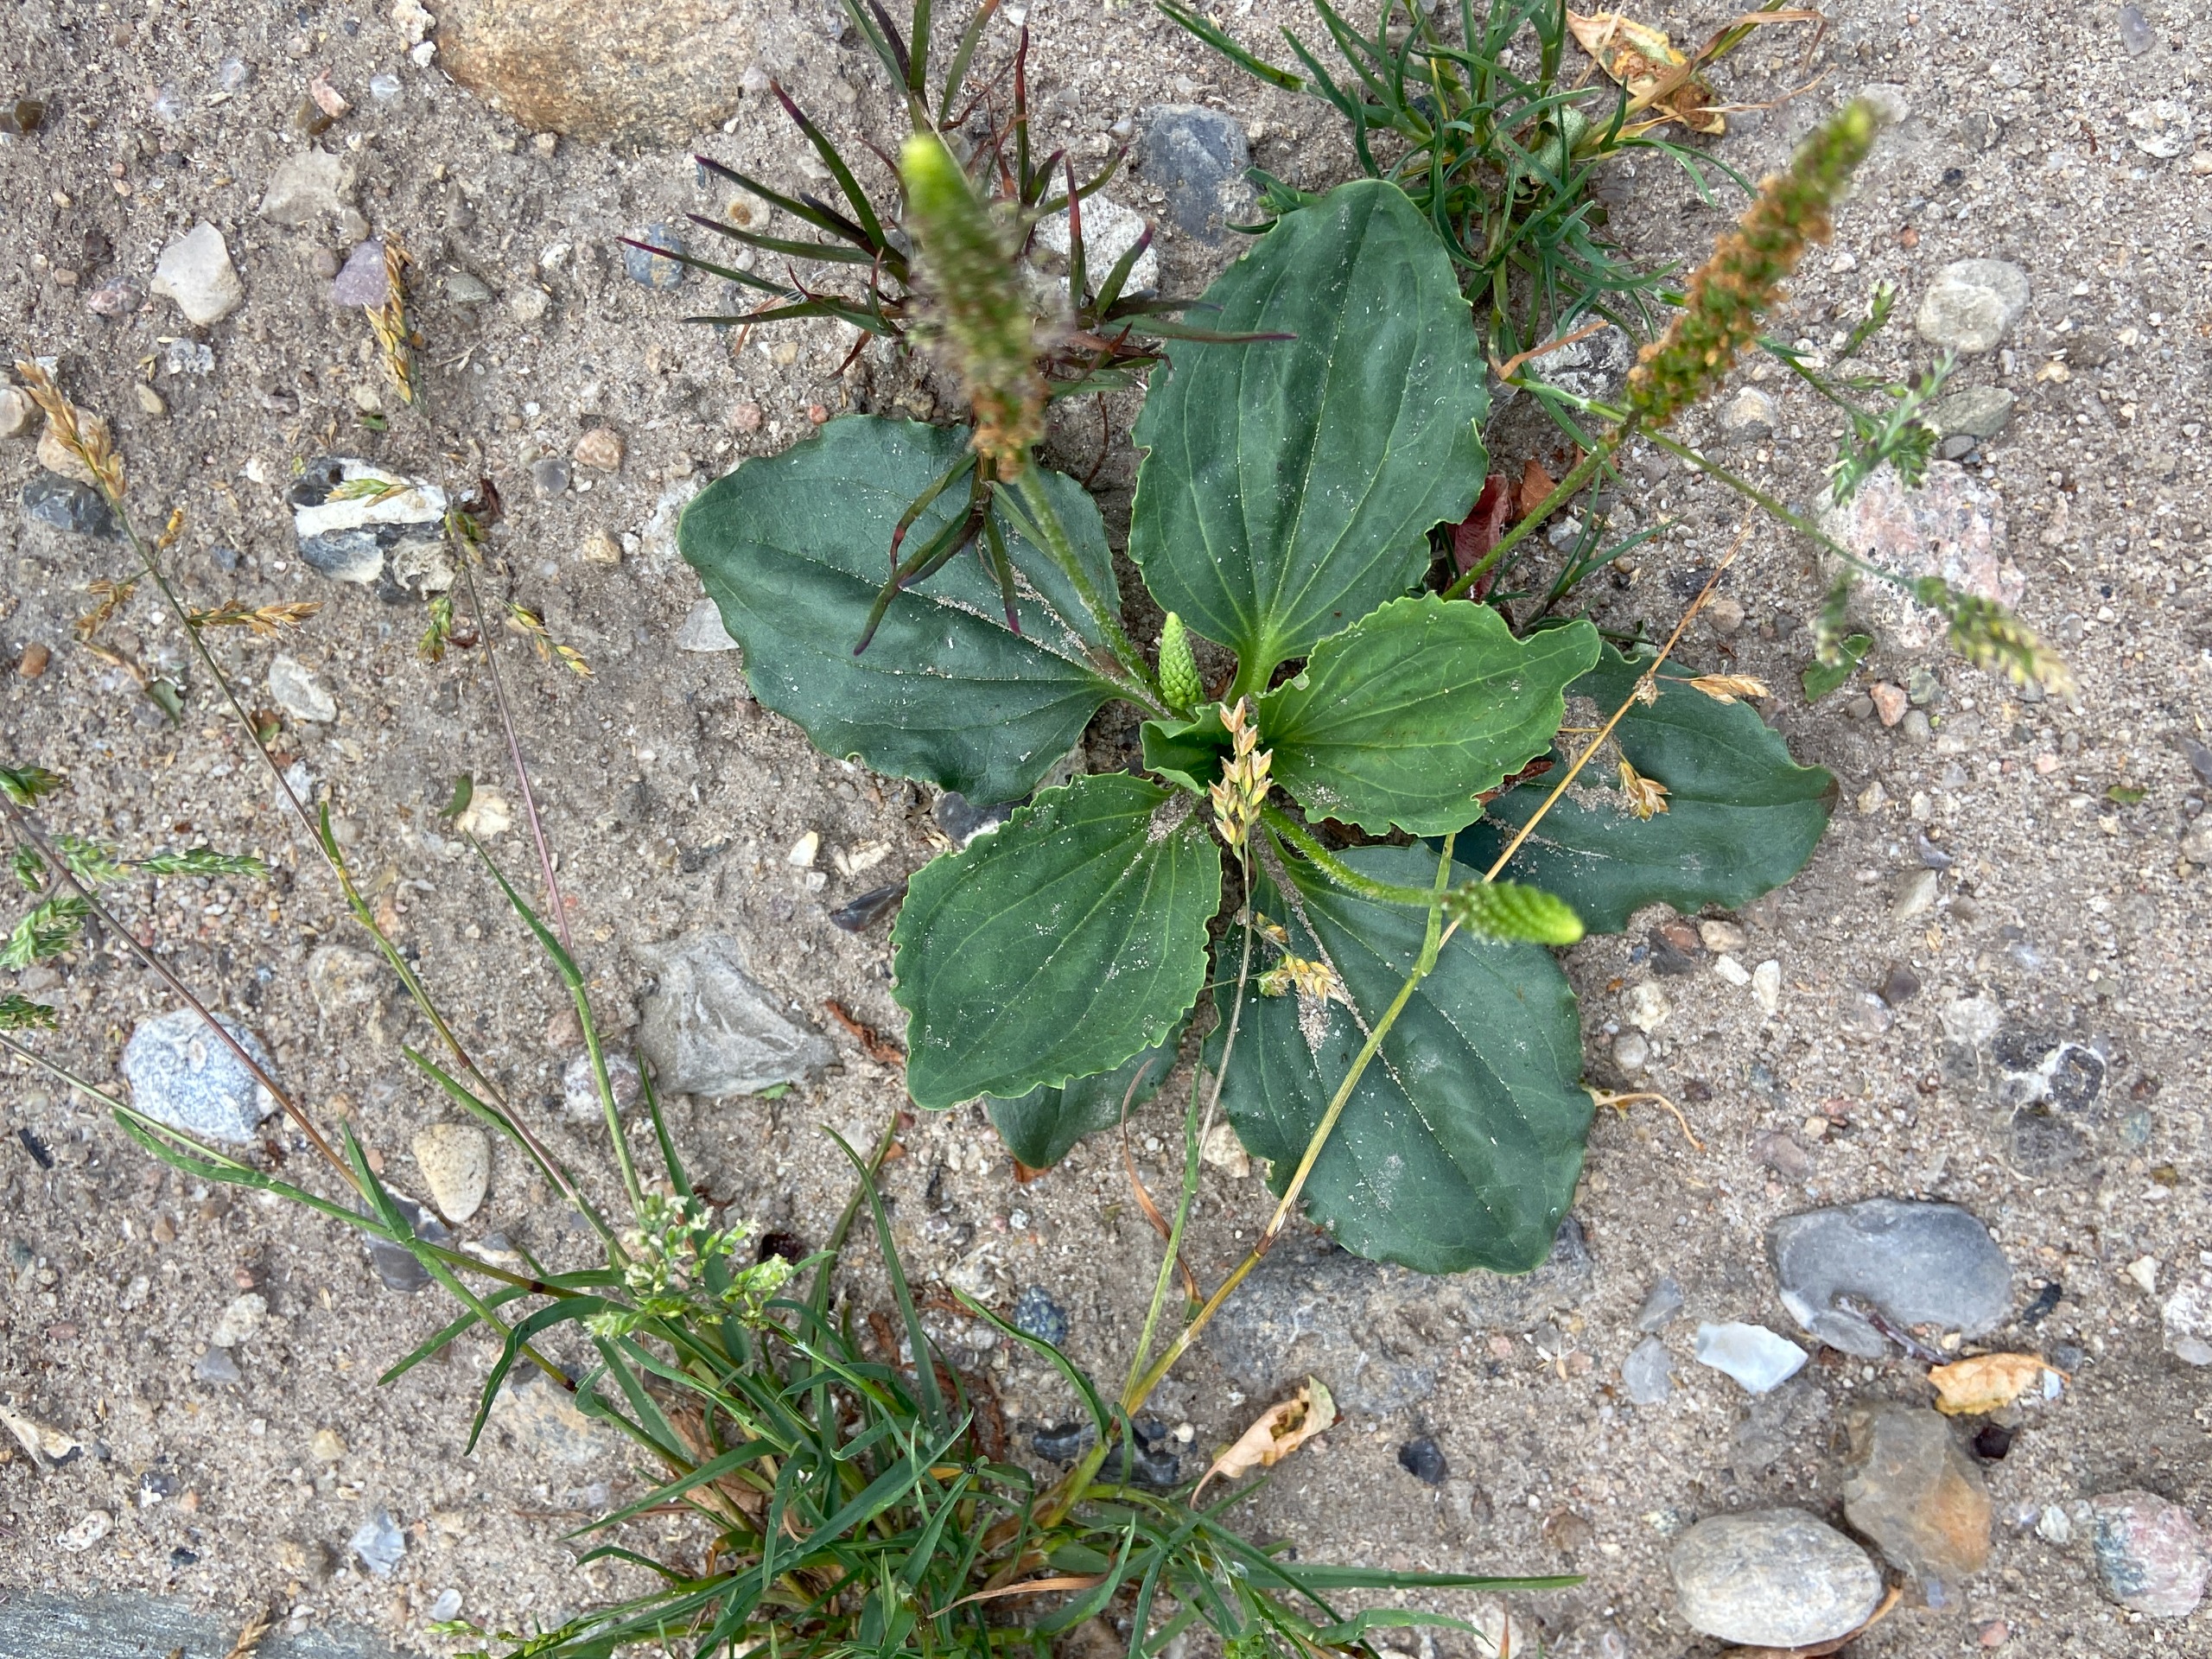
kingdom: Plantae
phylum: Tracheophyta
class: Magnoliopsida
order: Lamiales
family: Plantaginaceae
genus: Plantago
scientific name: Plantago major
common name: Glat vejbred
